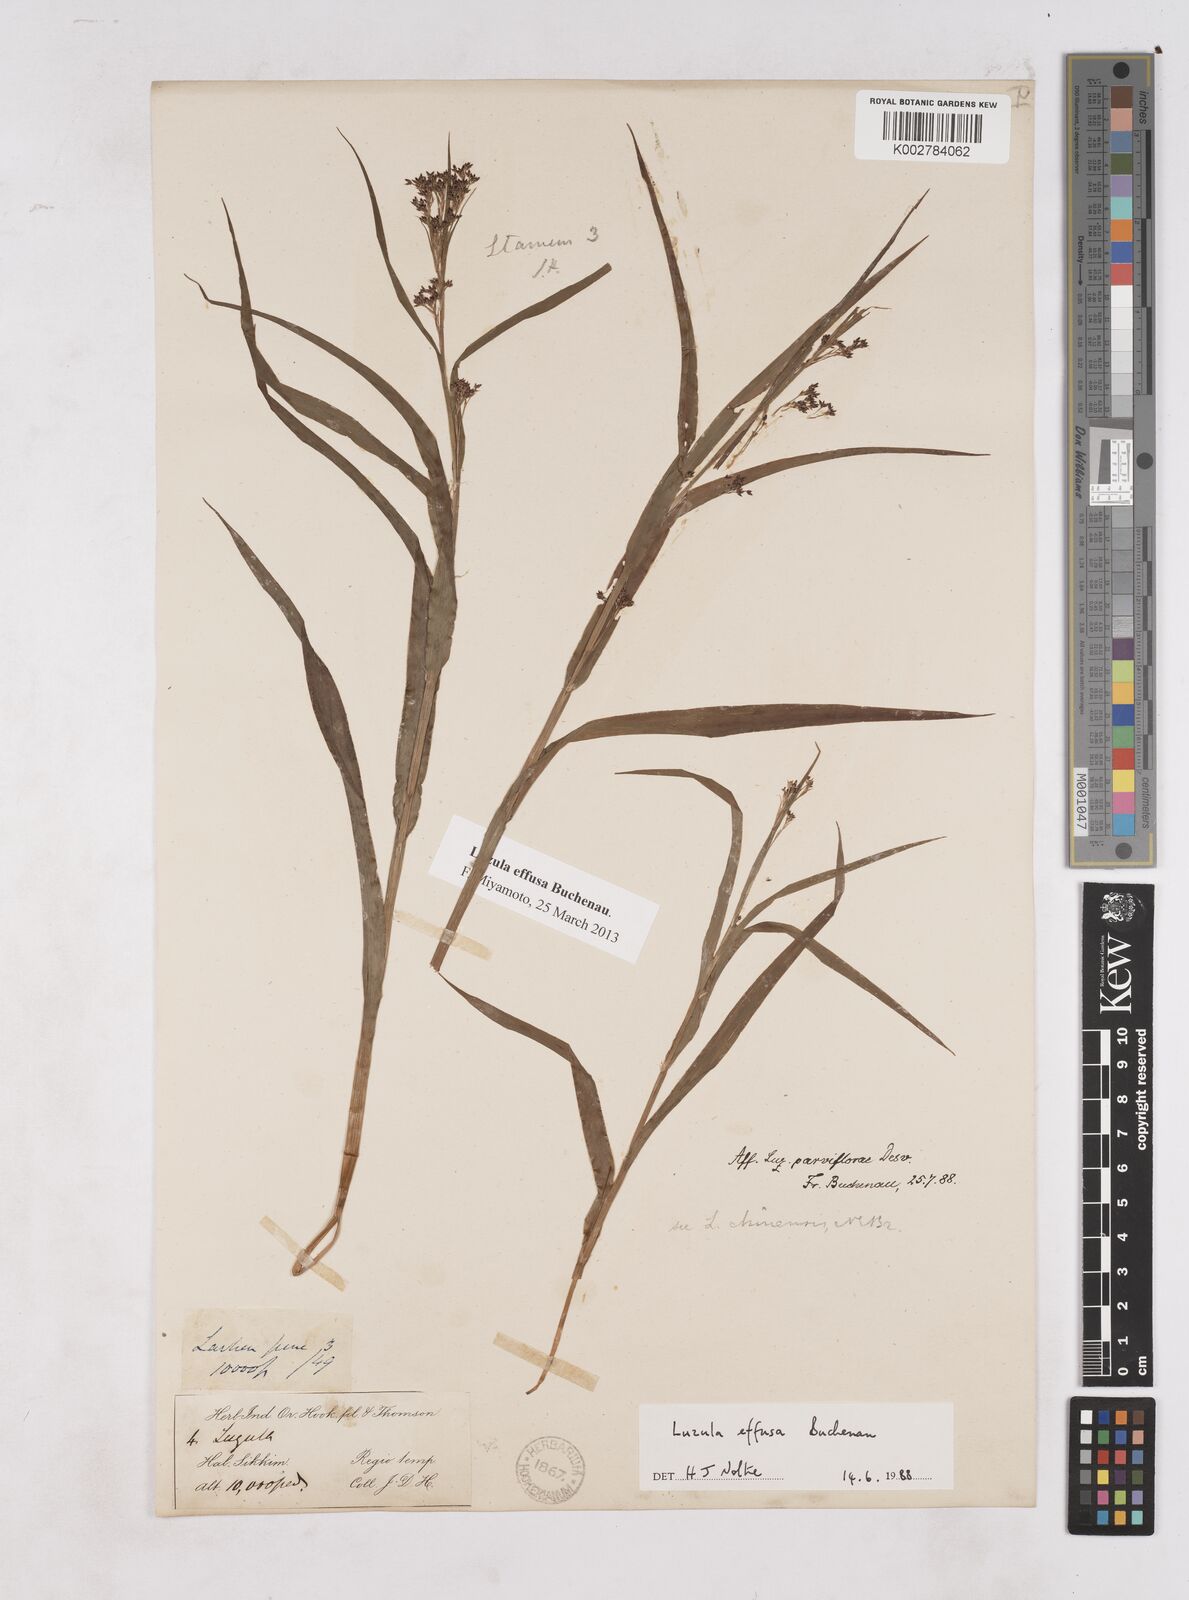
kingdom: Plantae
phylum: Tracheophyta
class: Liliopsida
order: Poales
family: Juncaceae
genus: Luzula
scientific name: Luzula effusa
